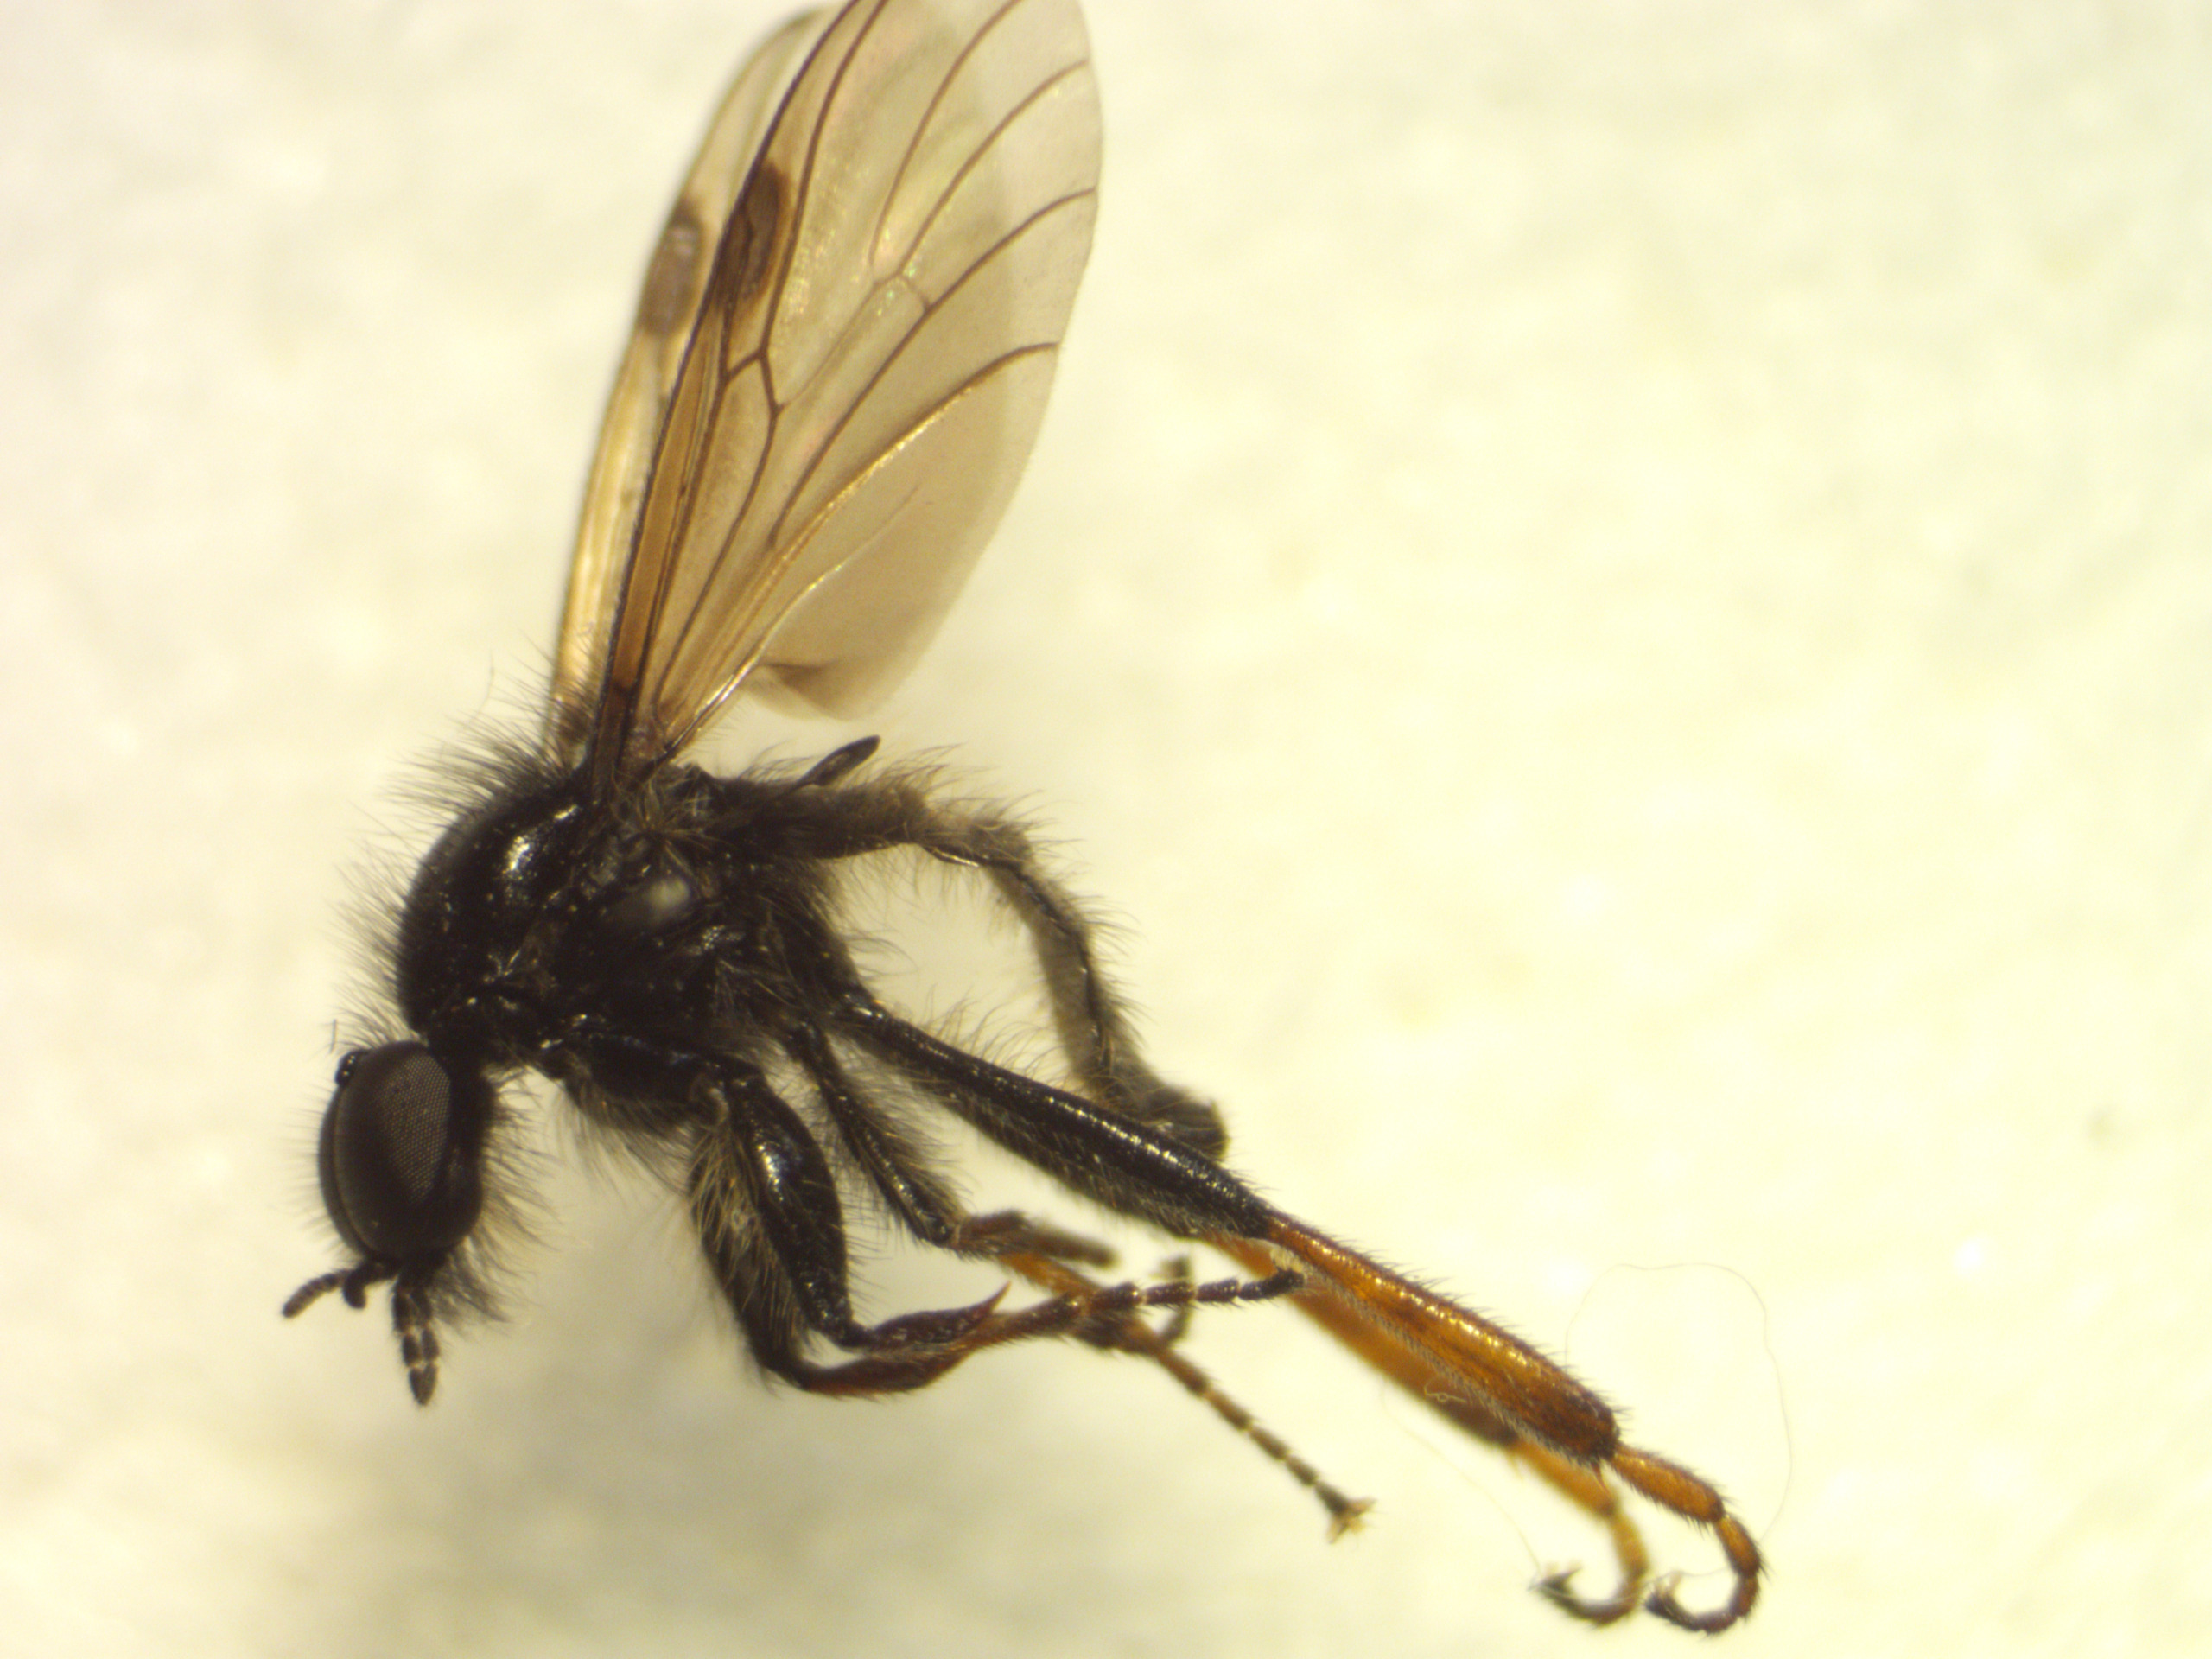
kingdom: Animalia
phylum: Arthropoda
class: Insecta
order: Diptera
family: Bibionidae
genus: Bibio
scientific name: Bibio varipes
